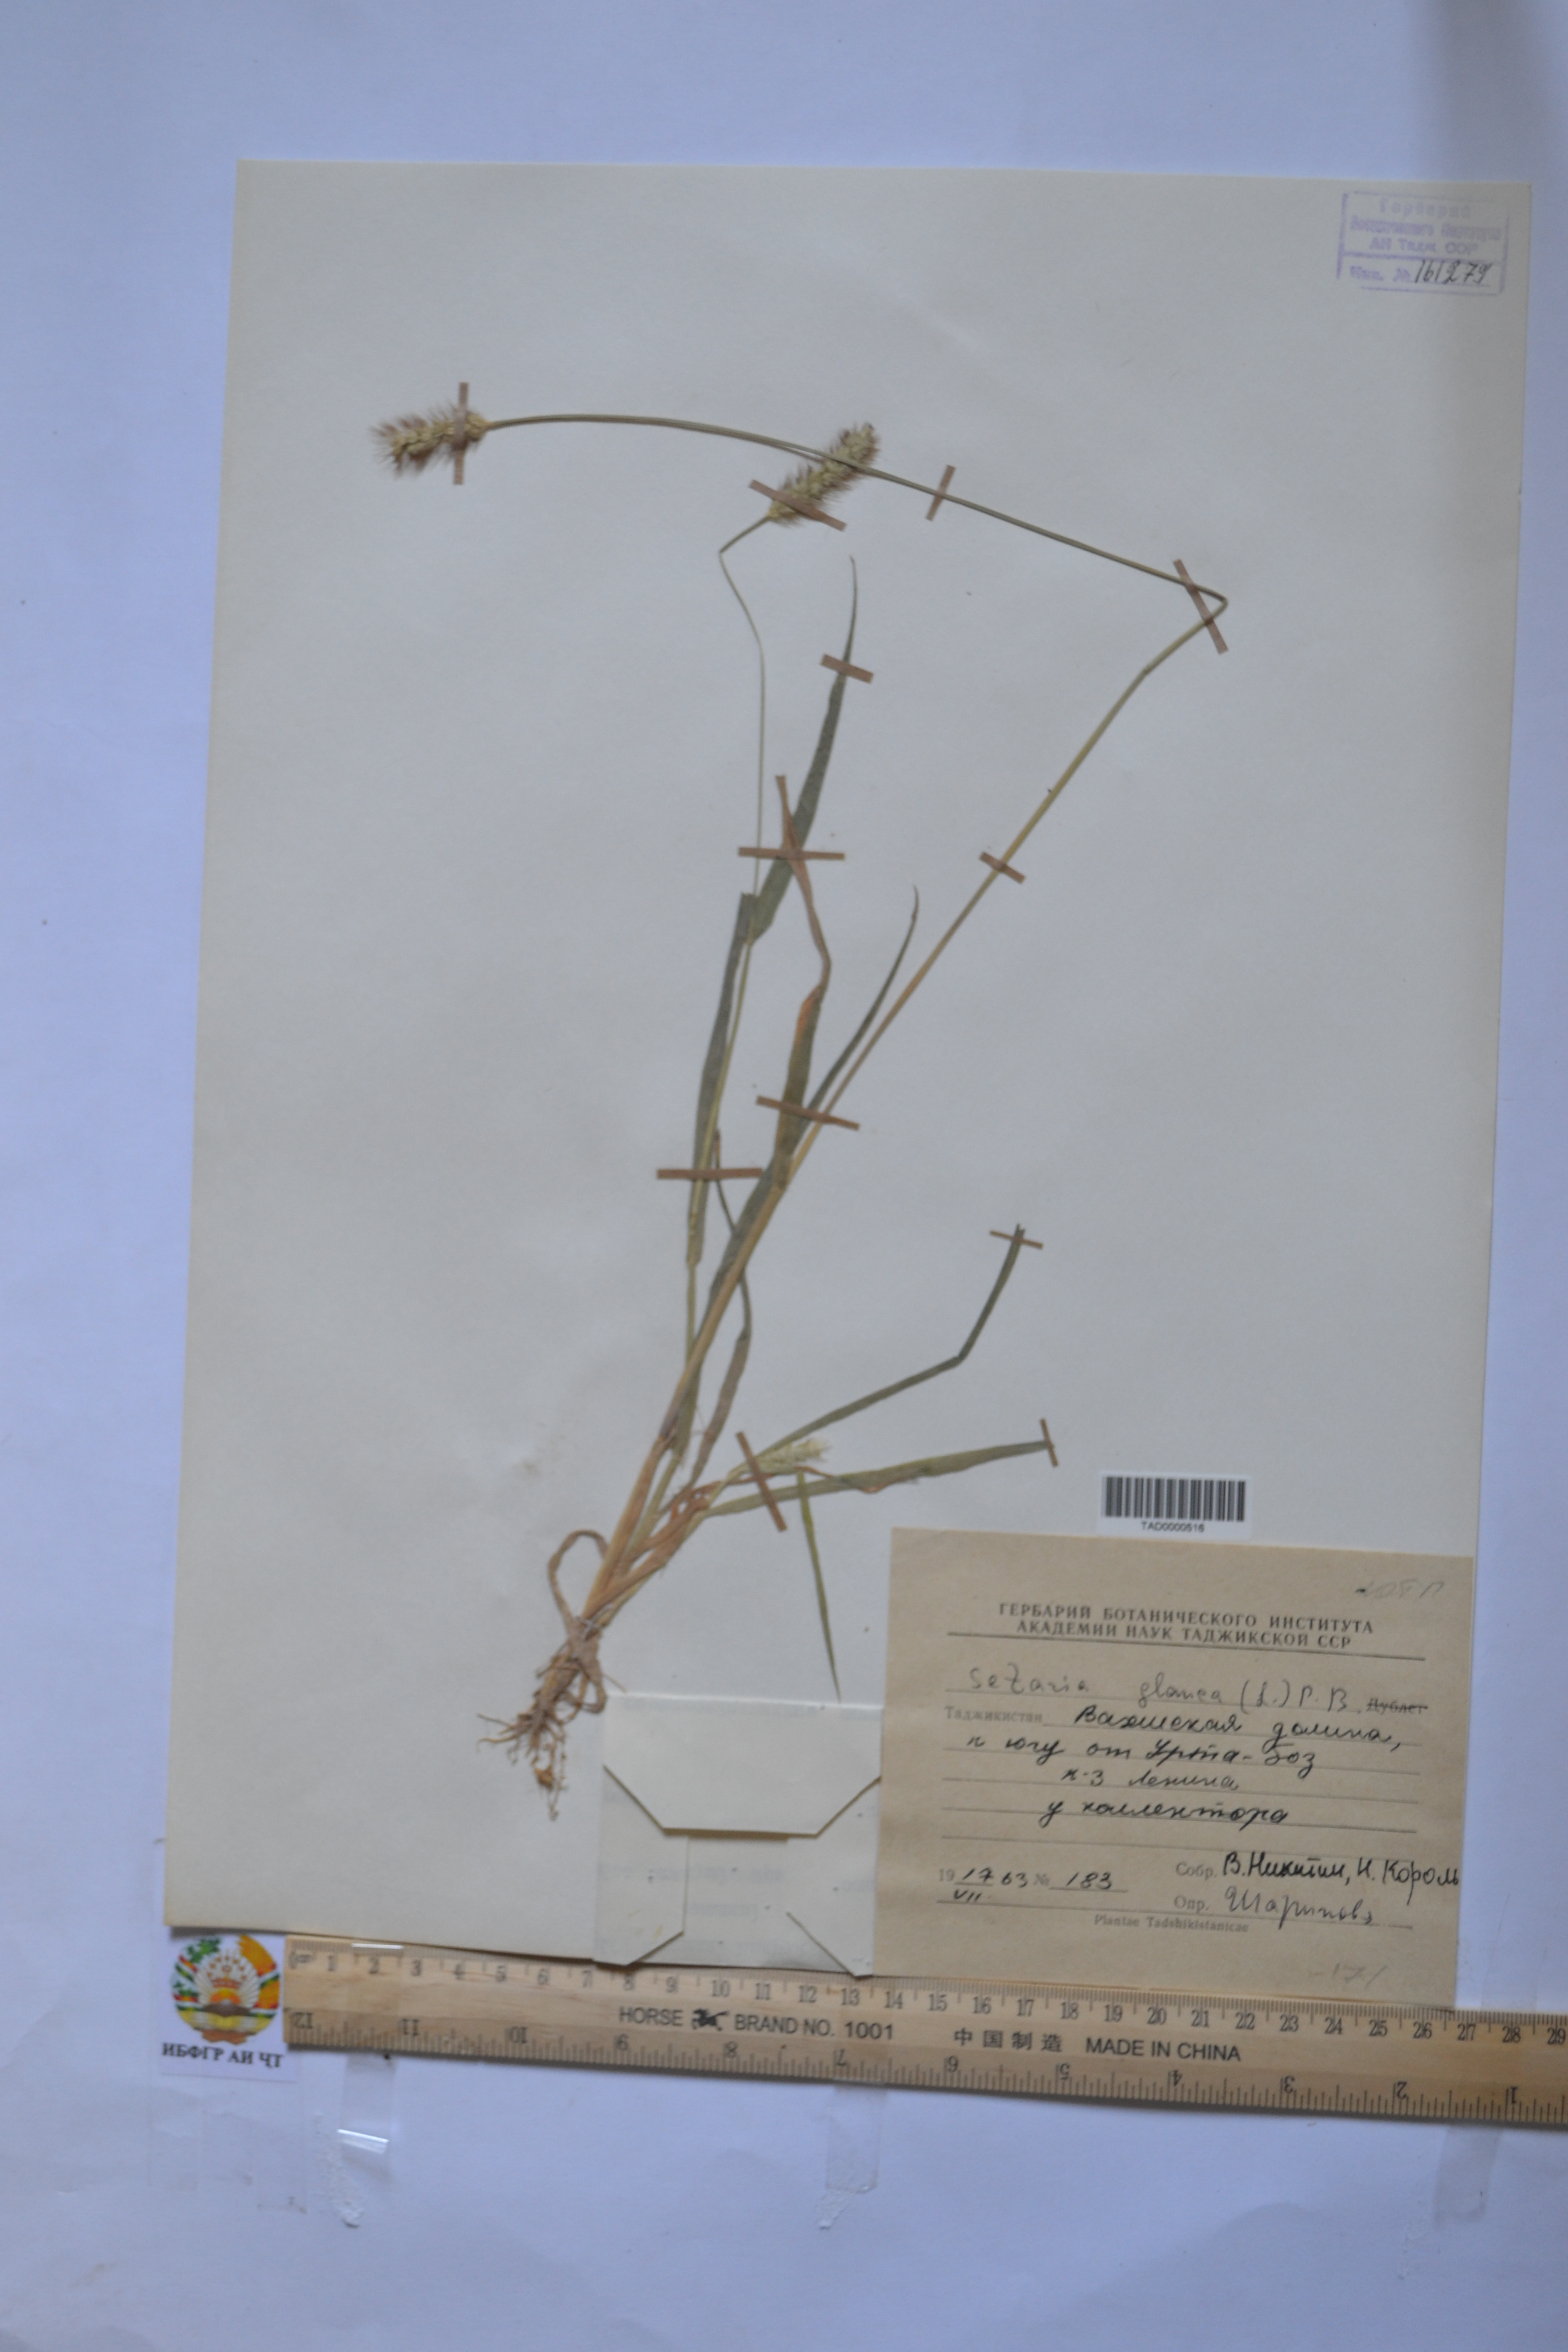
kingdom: Plantae
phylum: Tracheophyta
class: Liliopsida
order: Poales
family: Poaceae
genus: Setaria
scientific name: Setaria glauca
